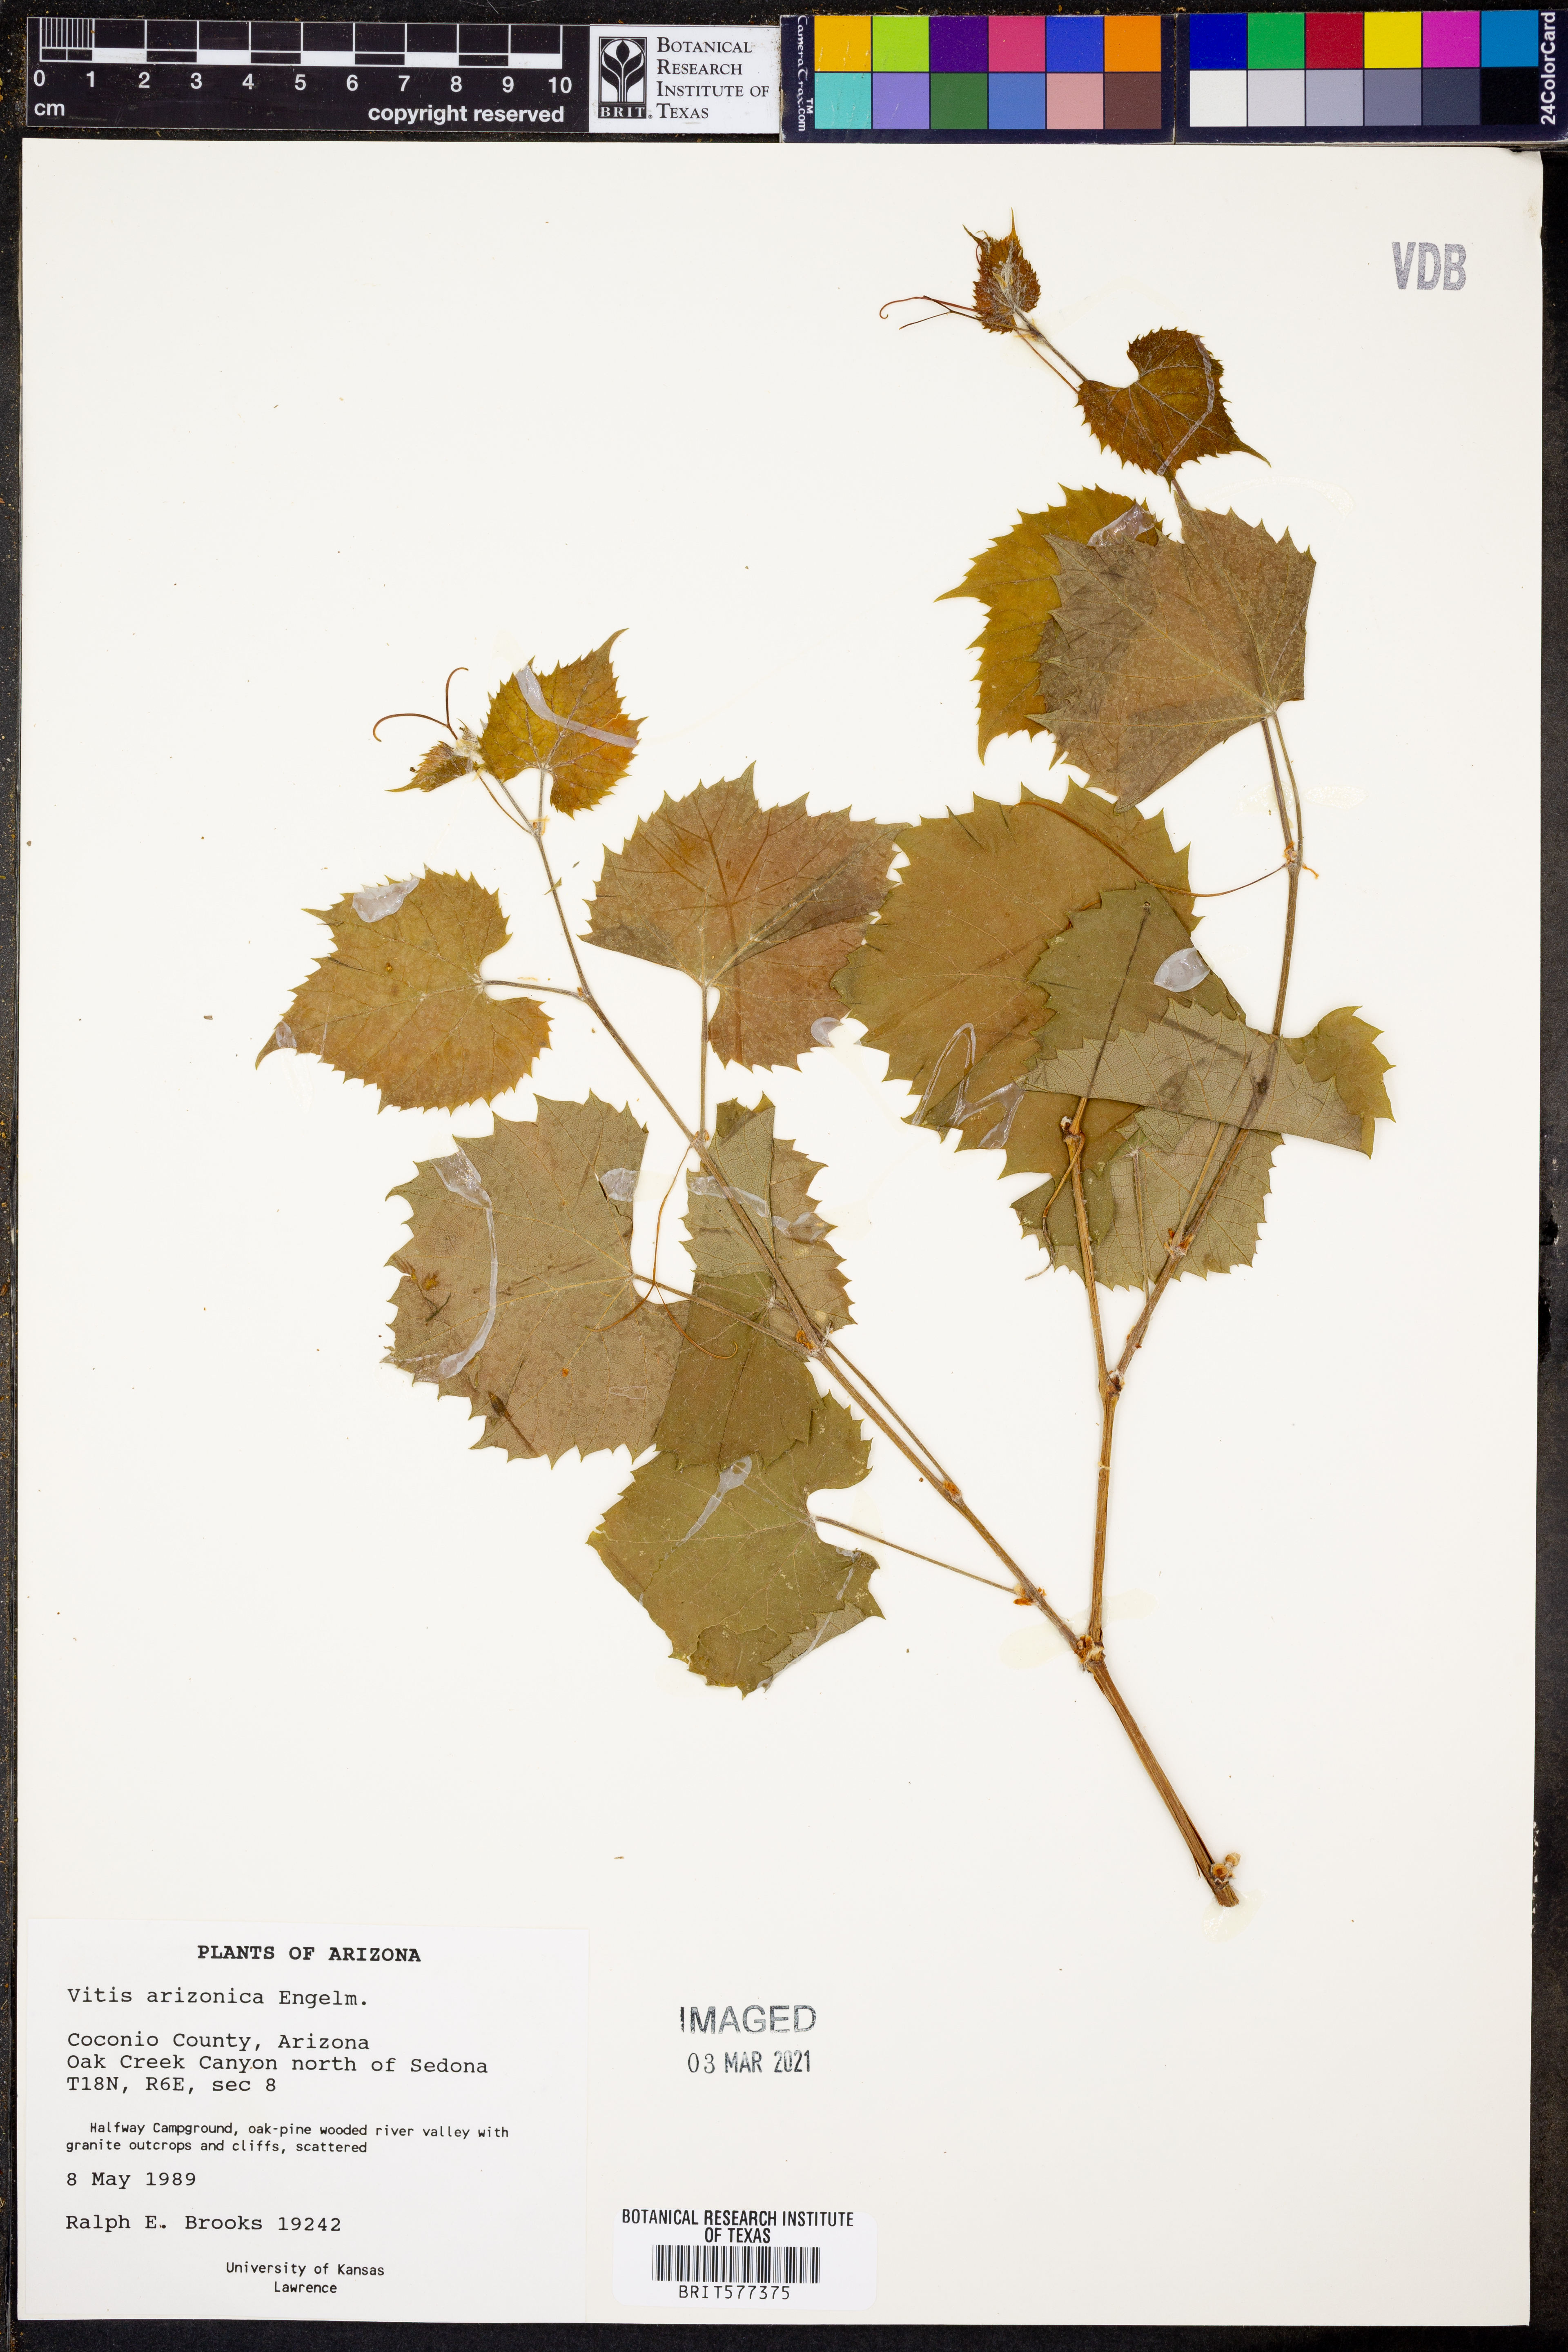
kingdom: Plantae
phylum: Tracheophyta
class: Magnoliopsida
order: Vitales
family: Vitaceae
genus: Vitis
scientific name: Vitis arizonica
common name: Canyon grape
